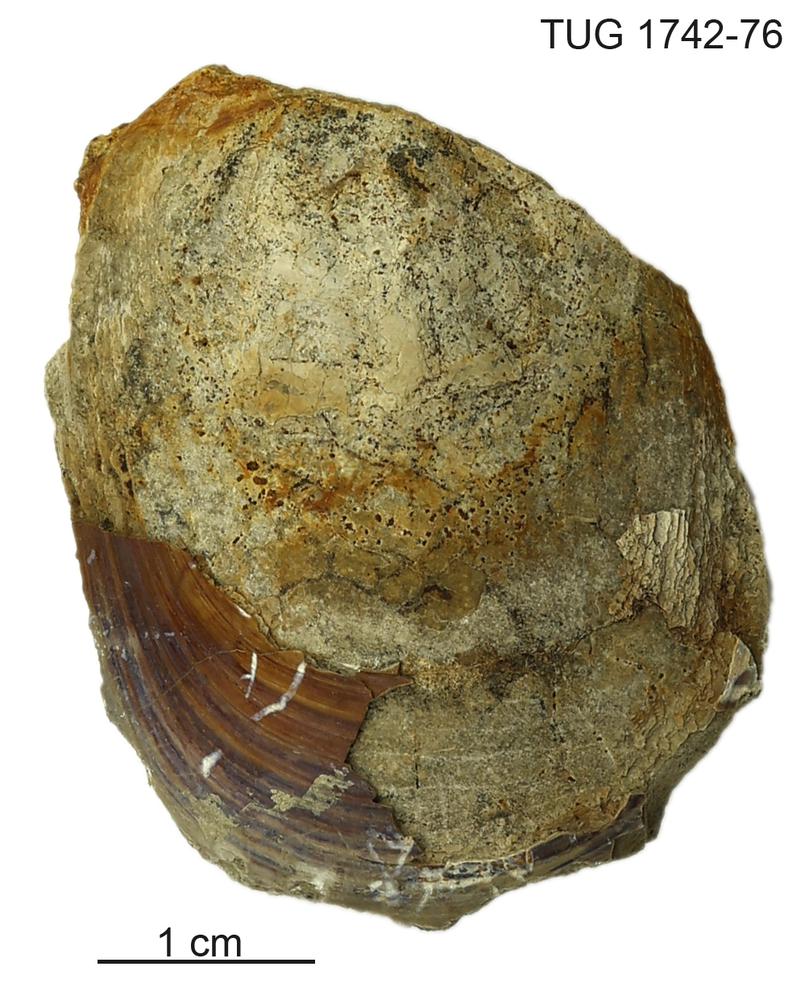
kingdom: Animalia
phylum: Brachiopoda
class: Lingulata
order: Lingulida
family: Pseudolingulidae
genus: Pseudolingula
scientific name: Pseudolingula
